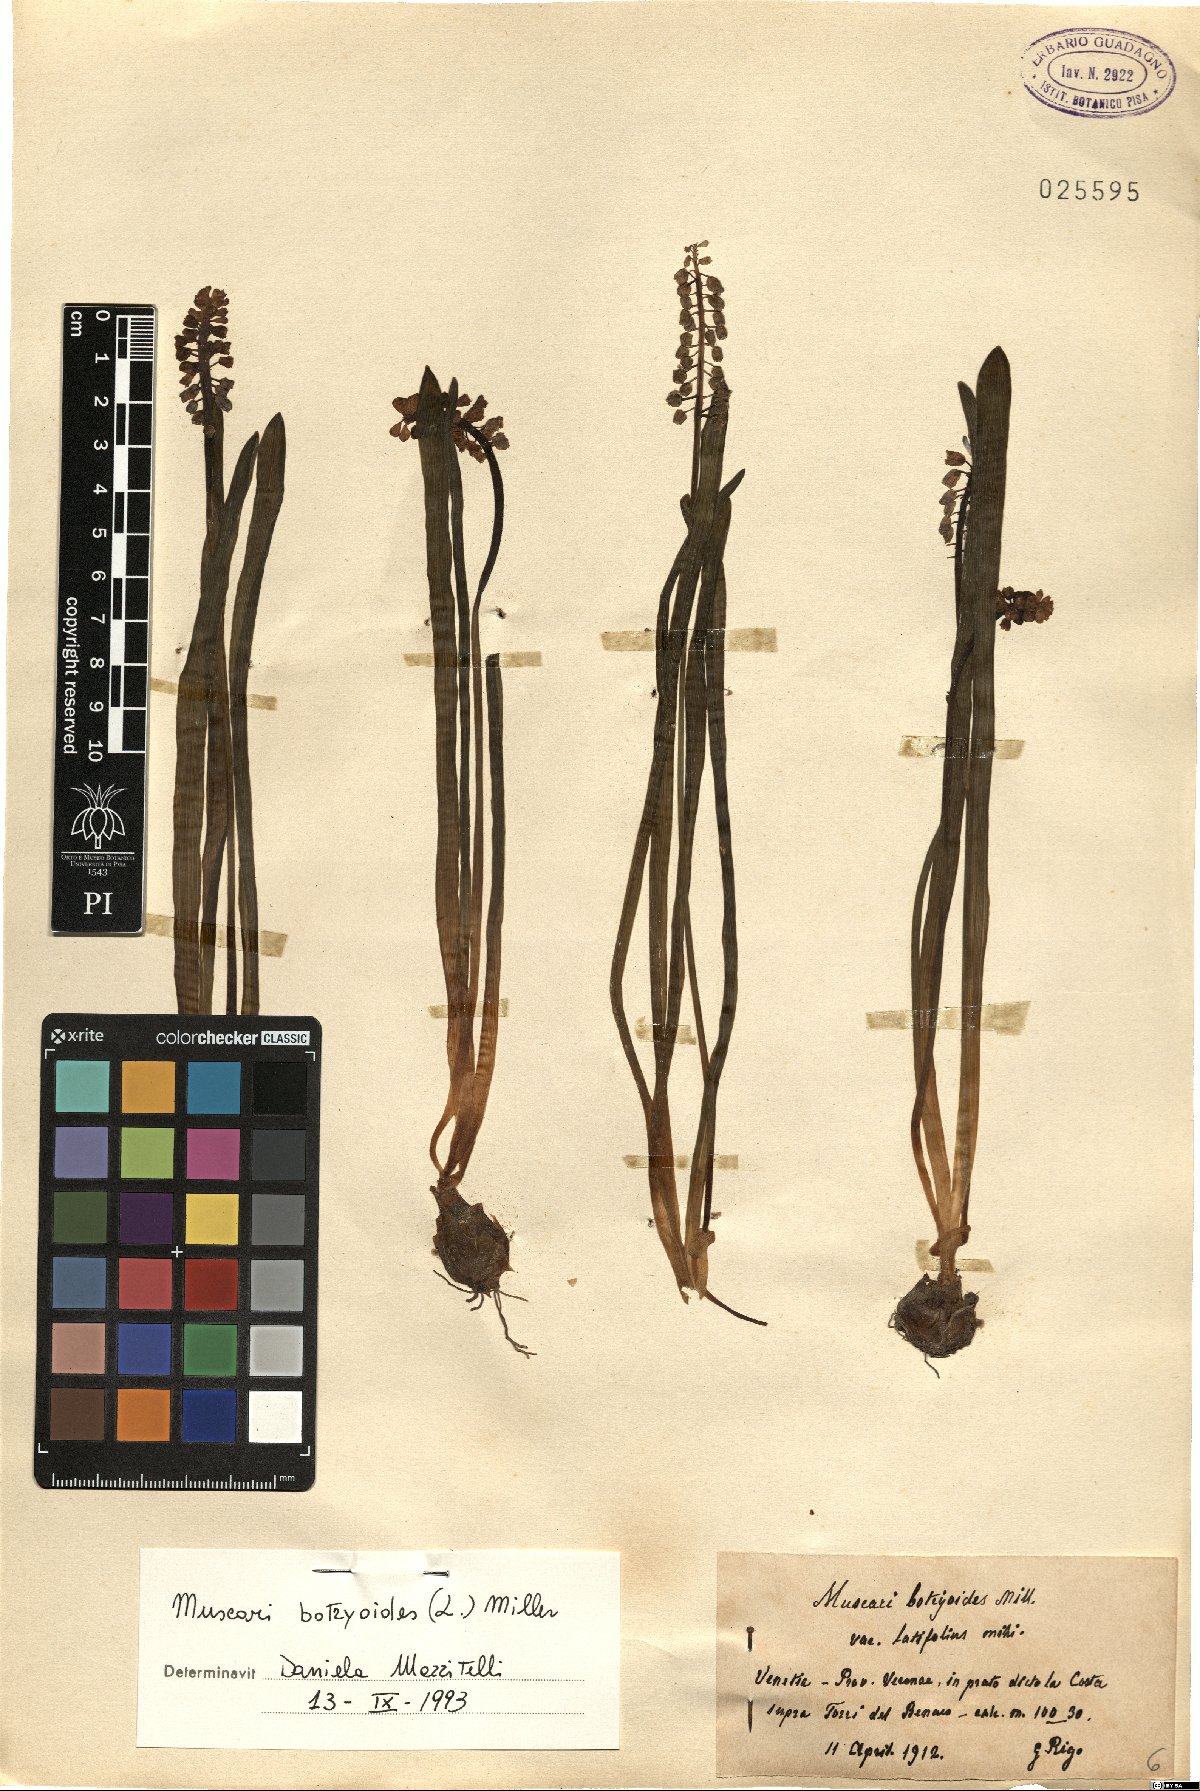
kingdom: Plantae
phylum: Tracheophyta
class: Liliopsida
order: Asparagales
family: Asparagaceae
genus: Muscari
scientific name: Muscari botryoides
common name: Compact grape-hyacinth
